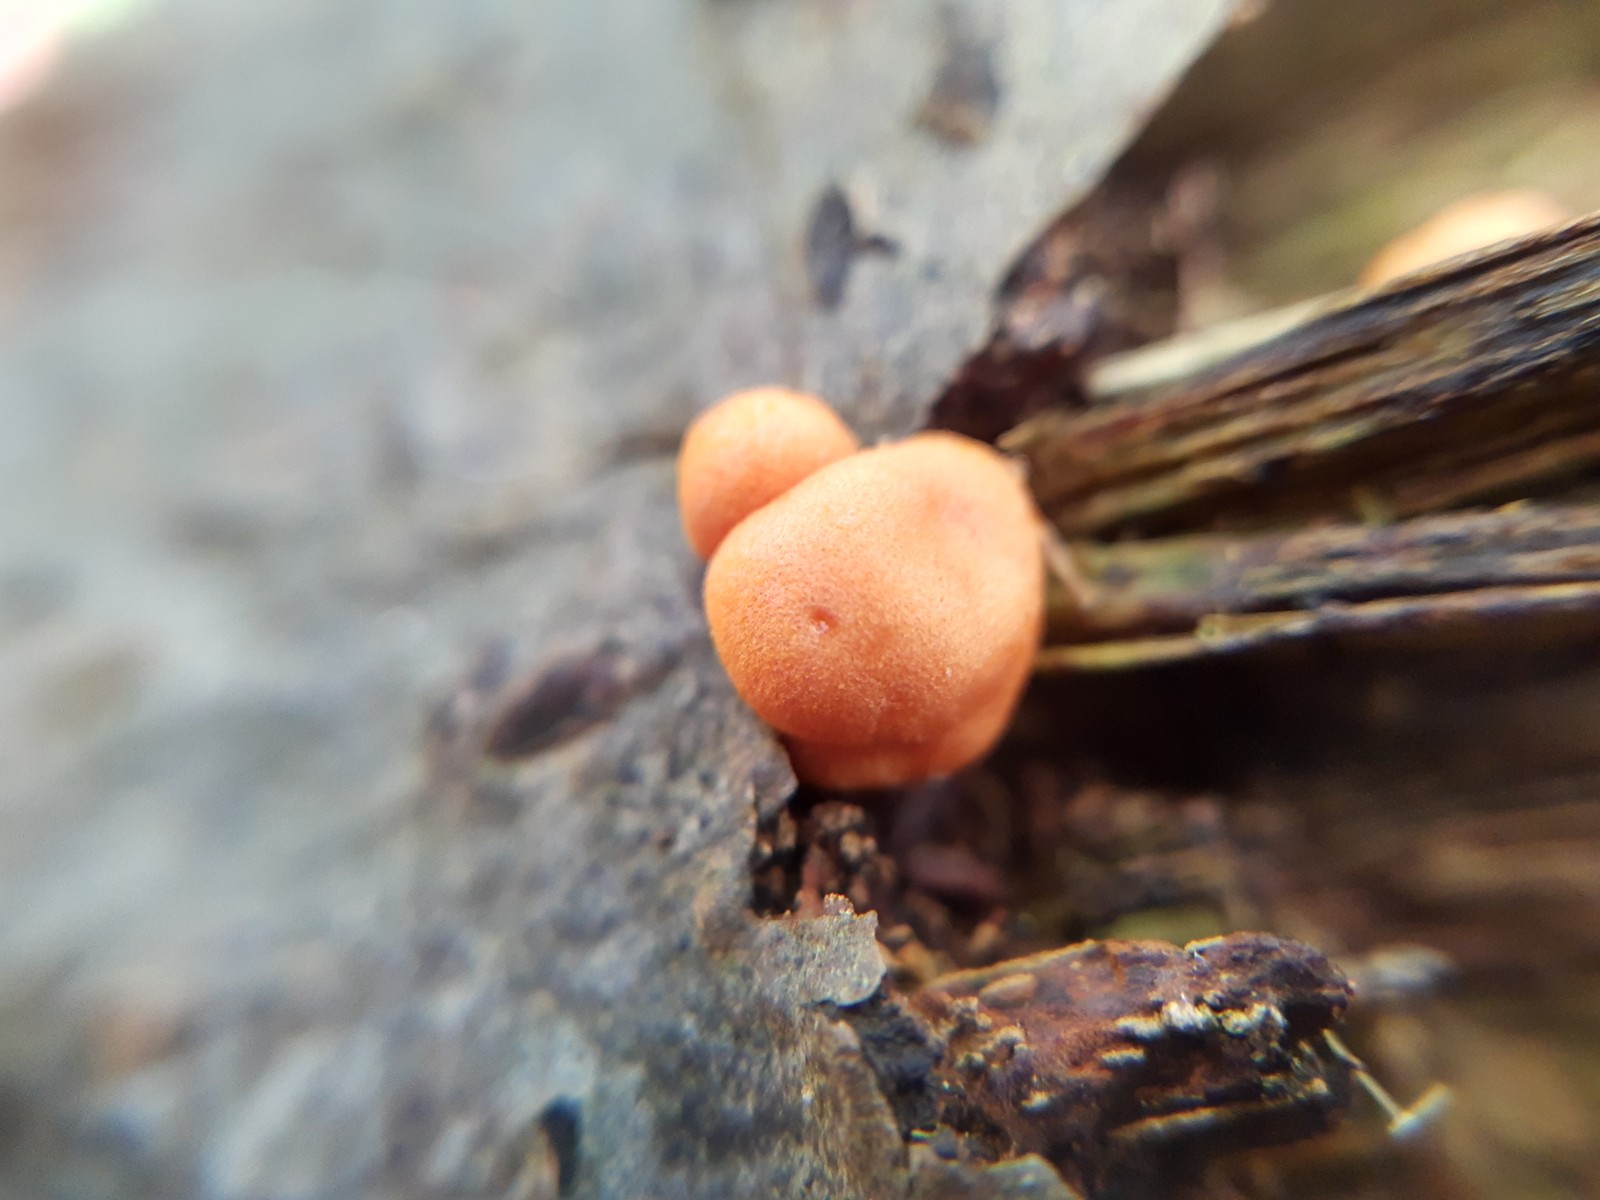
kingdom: Protozoa
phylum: Mycetozoa
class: Myxomycetes
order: Cribrariales
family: Tubiferaceae
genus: Lycogala
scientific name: Lycogala epidendrum
